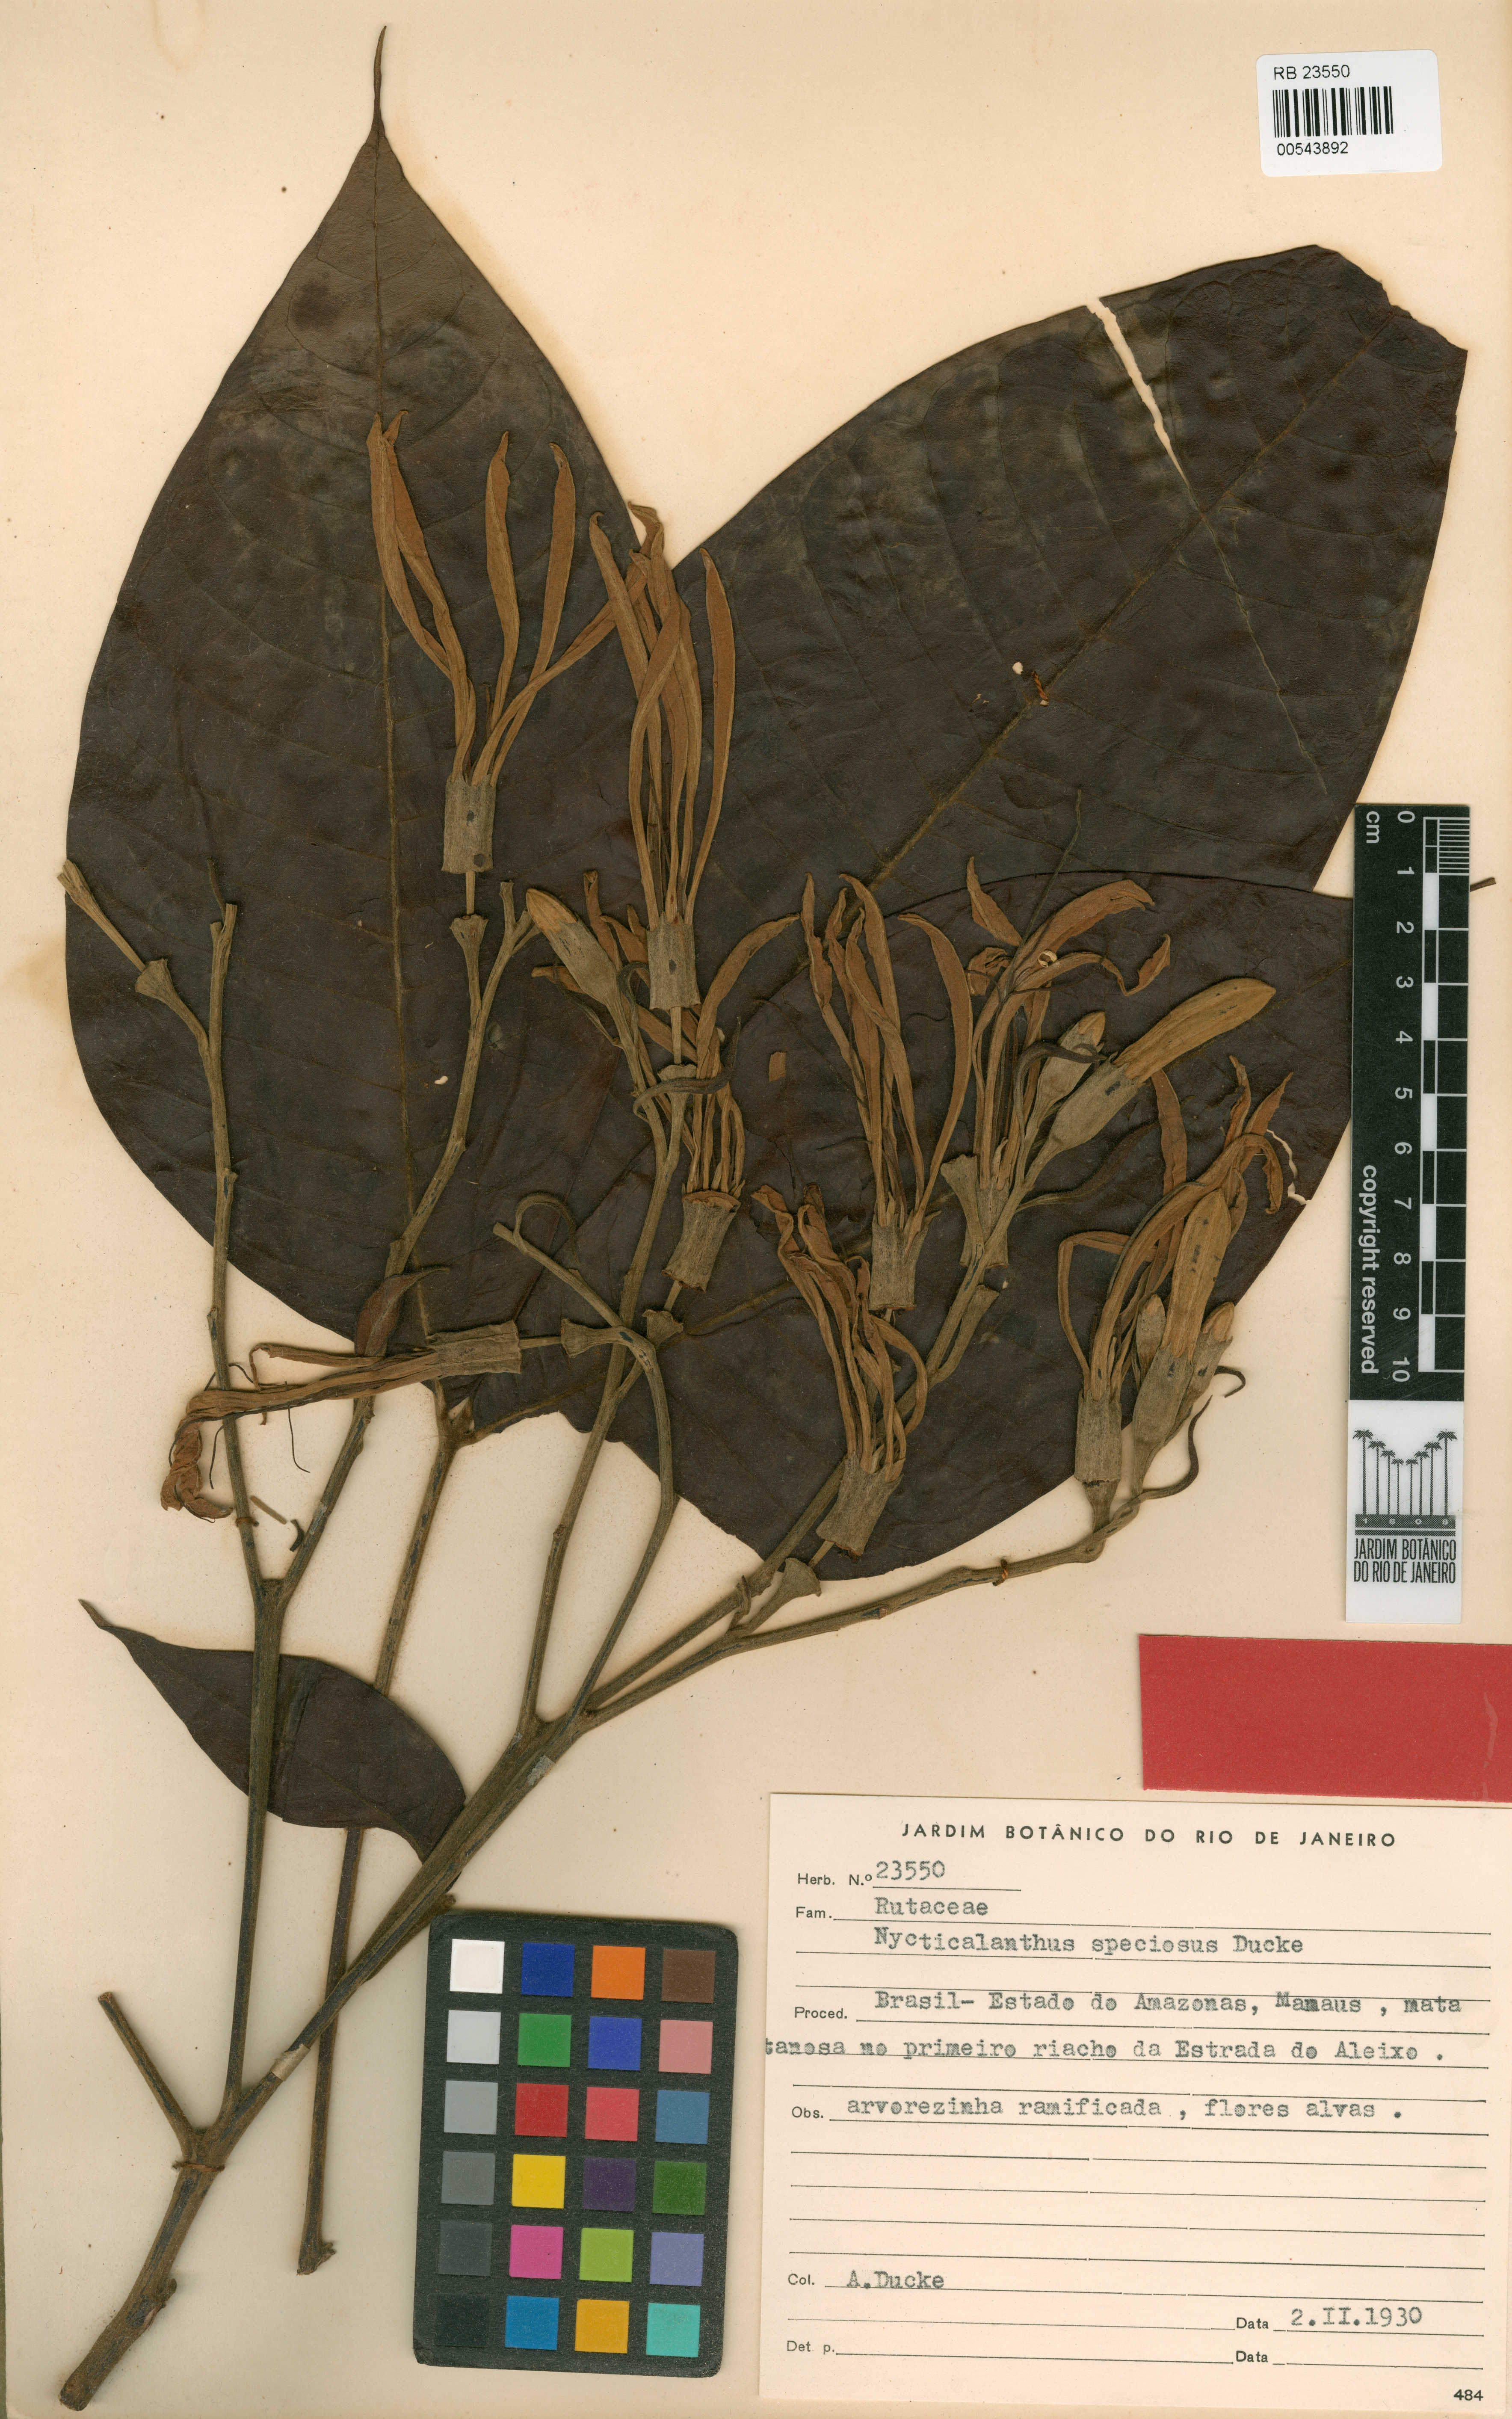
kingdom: Plantae
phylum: Tracheophyta
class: Magnoliopsida
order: Sapindales
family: Rutaceae
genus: Nycticalanthus
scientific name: Nycticalanthus speciosus
